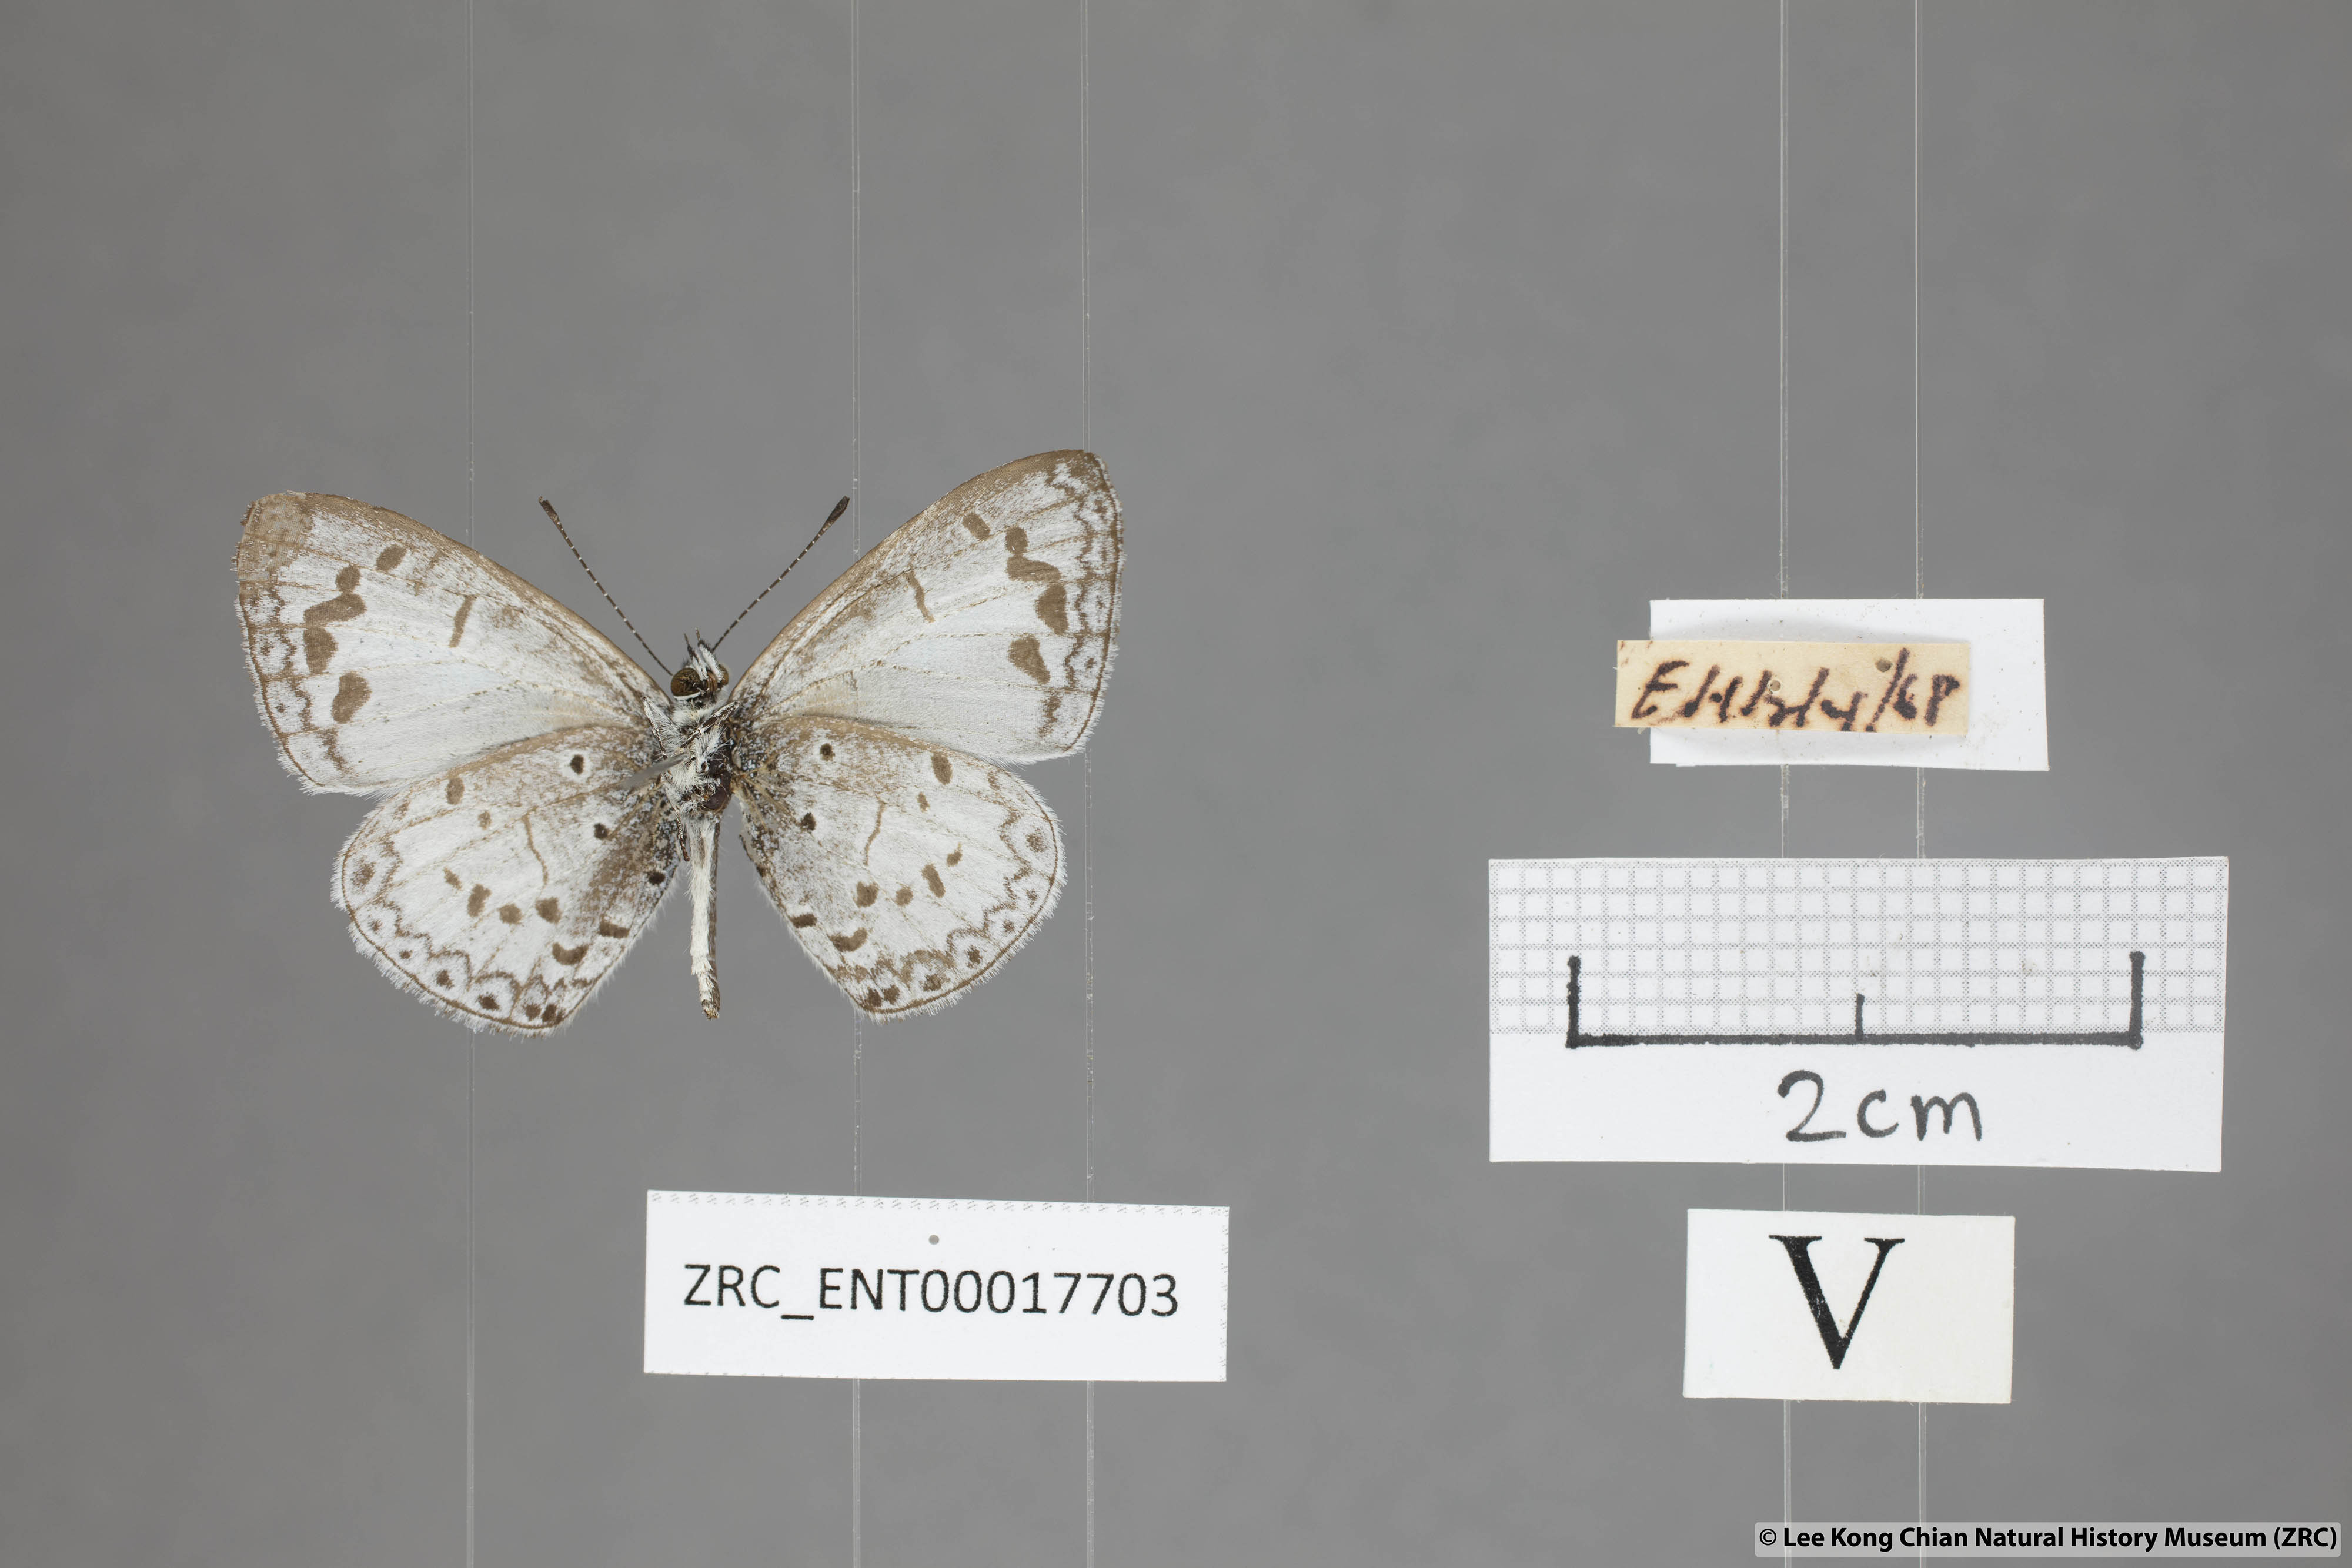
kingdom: Animalia
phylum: Arthropoda
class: Insecta
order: Lepidoptera
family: Lycaenidae
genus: Lycaenopsis
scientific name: Lycaenopsis marginata
